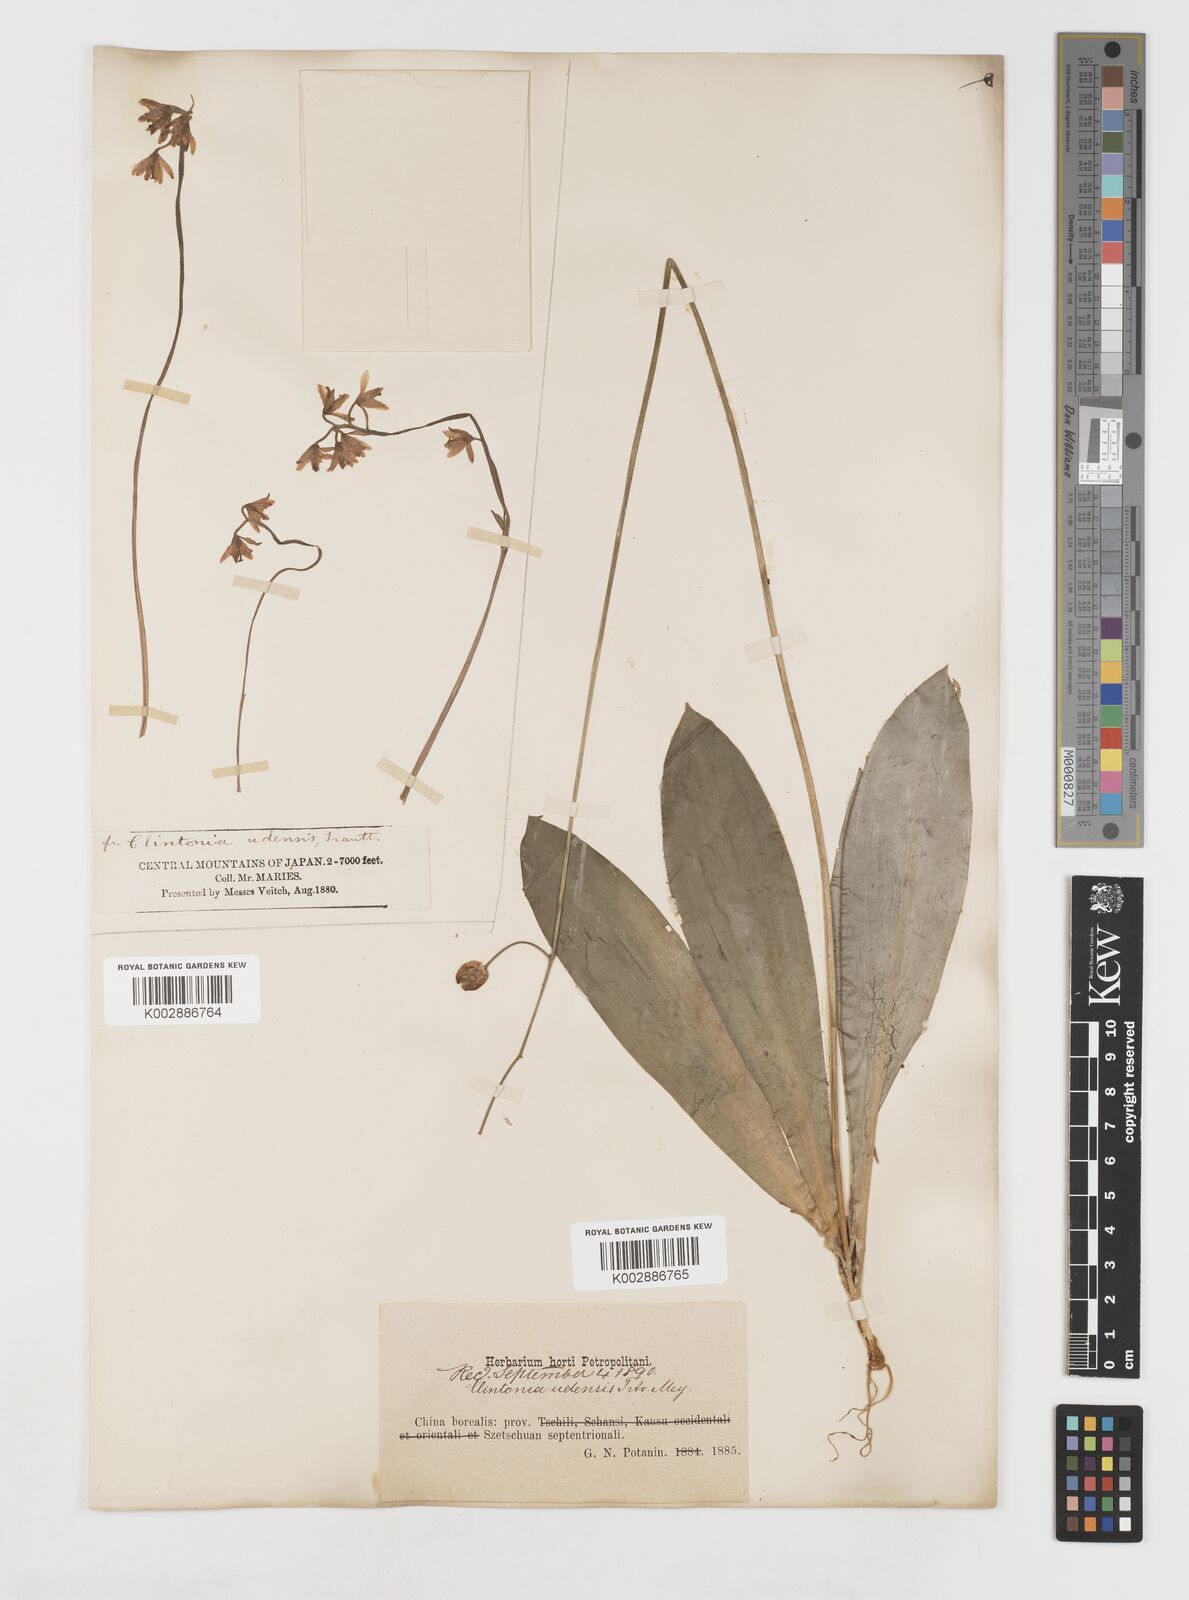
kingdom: Plantae
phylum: Tracheophyta
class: Liliopsida
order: Liliales
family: Liliaceae
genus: Clintonia
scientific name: Clintonia udensis
